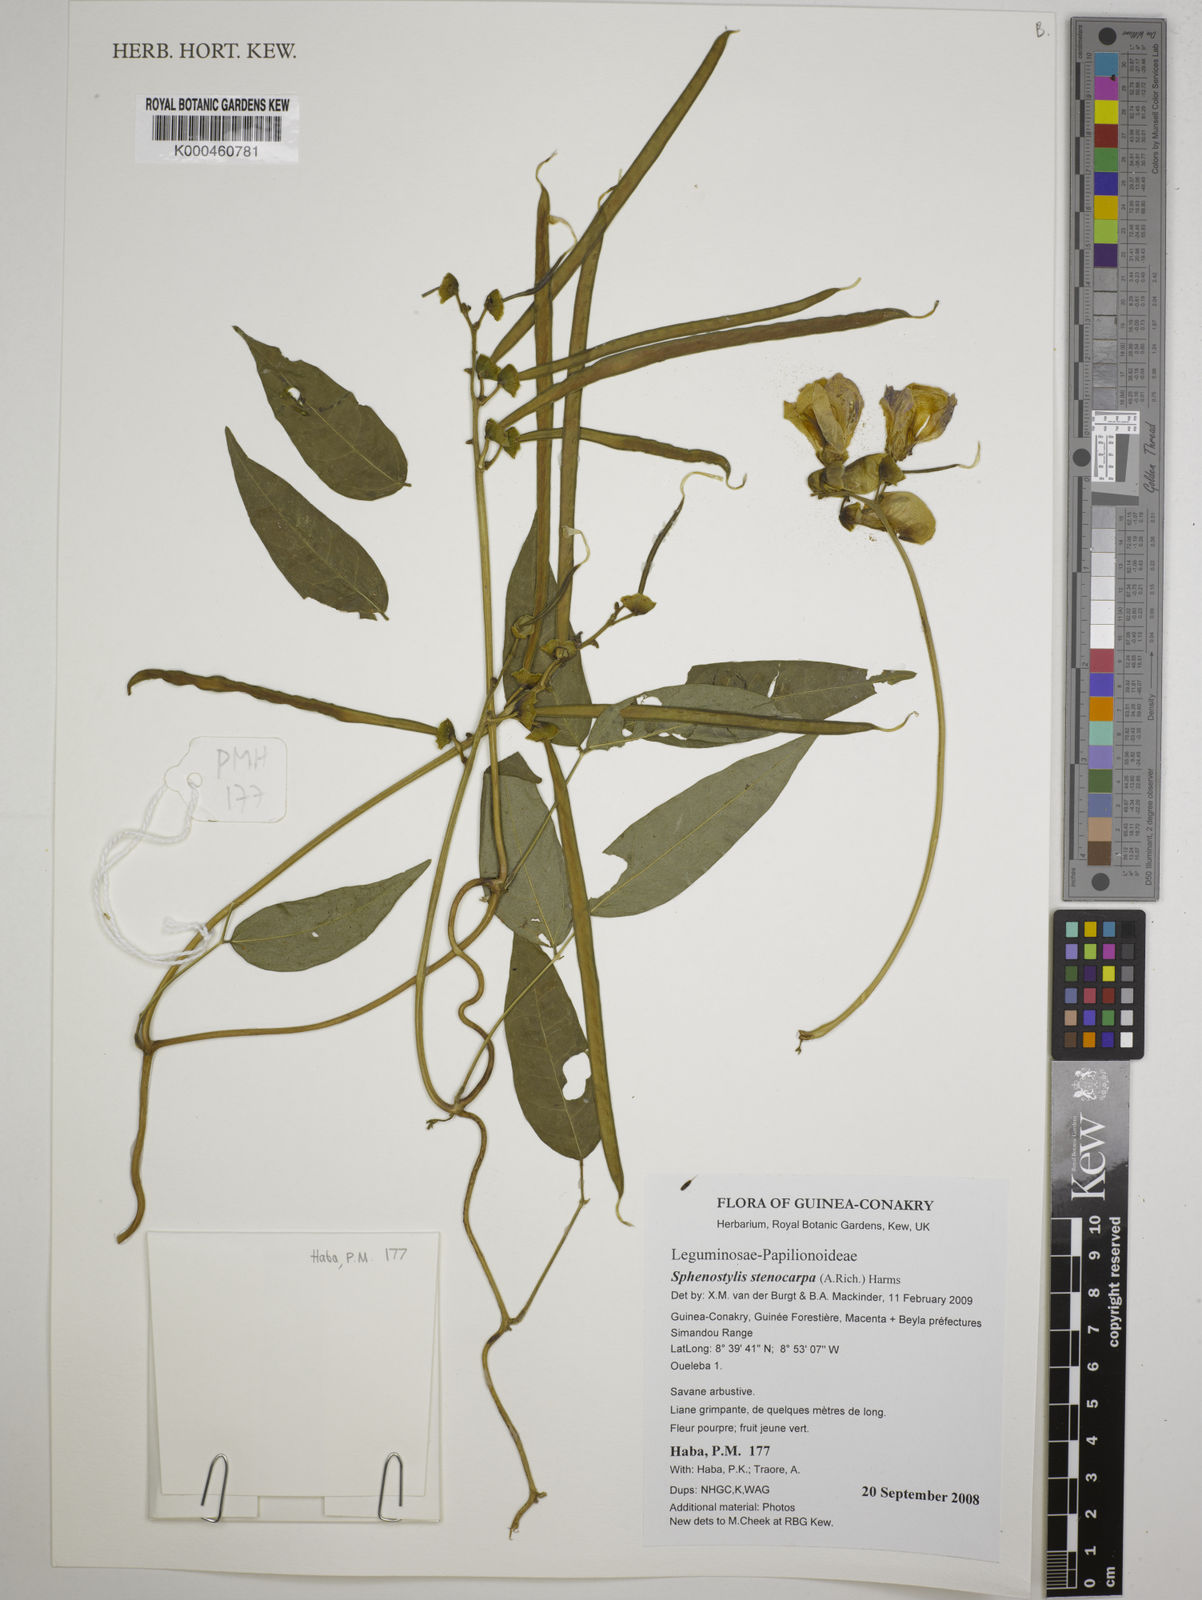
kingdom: Plantae
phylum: Tracheophyta
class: Magnoliopsida
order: Fabales
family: Fabaceae
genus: Sphenostylis
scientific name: Sphenostylis stenocarpa
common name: Yam-pea
